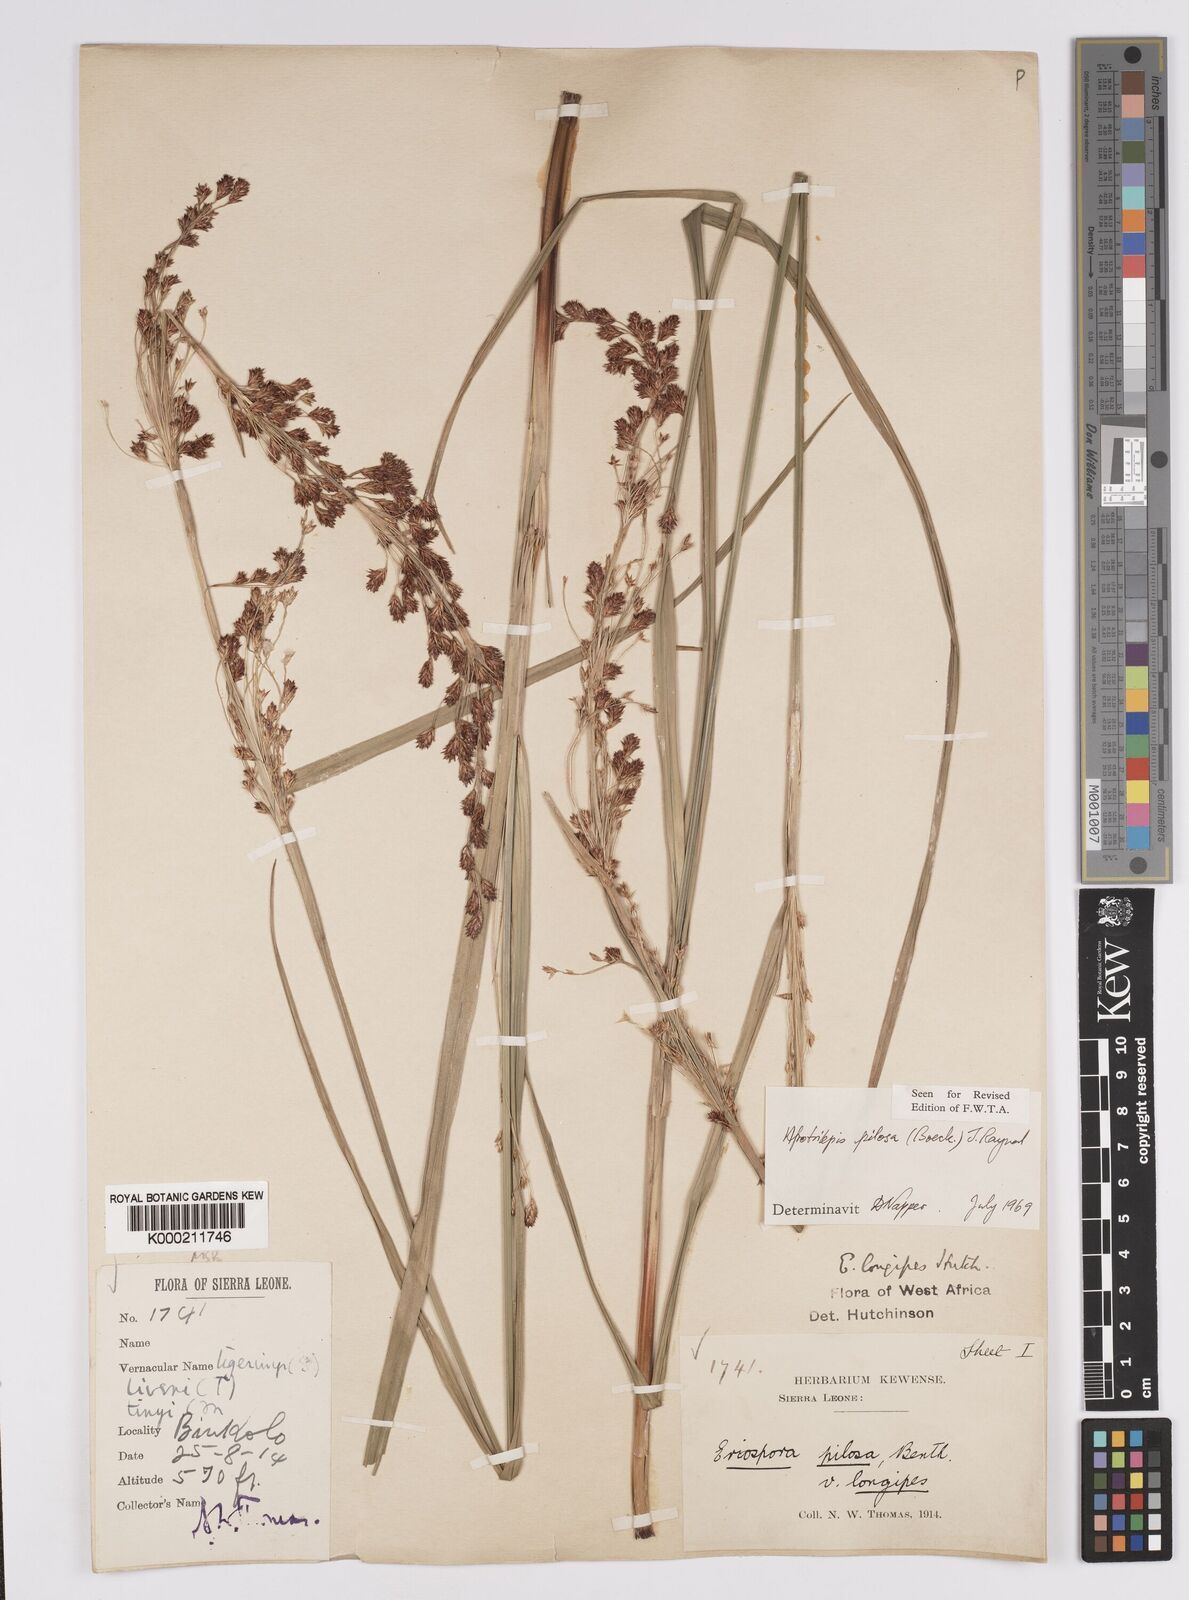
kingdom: Plantae
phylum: Tracheophyta
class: Liliopsida
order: Poales
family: Cyperaceae
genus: Afrotrilepis
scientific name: Afrotrilepis pilosa
